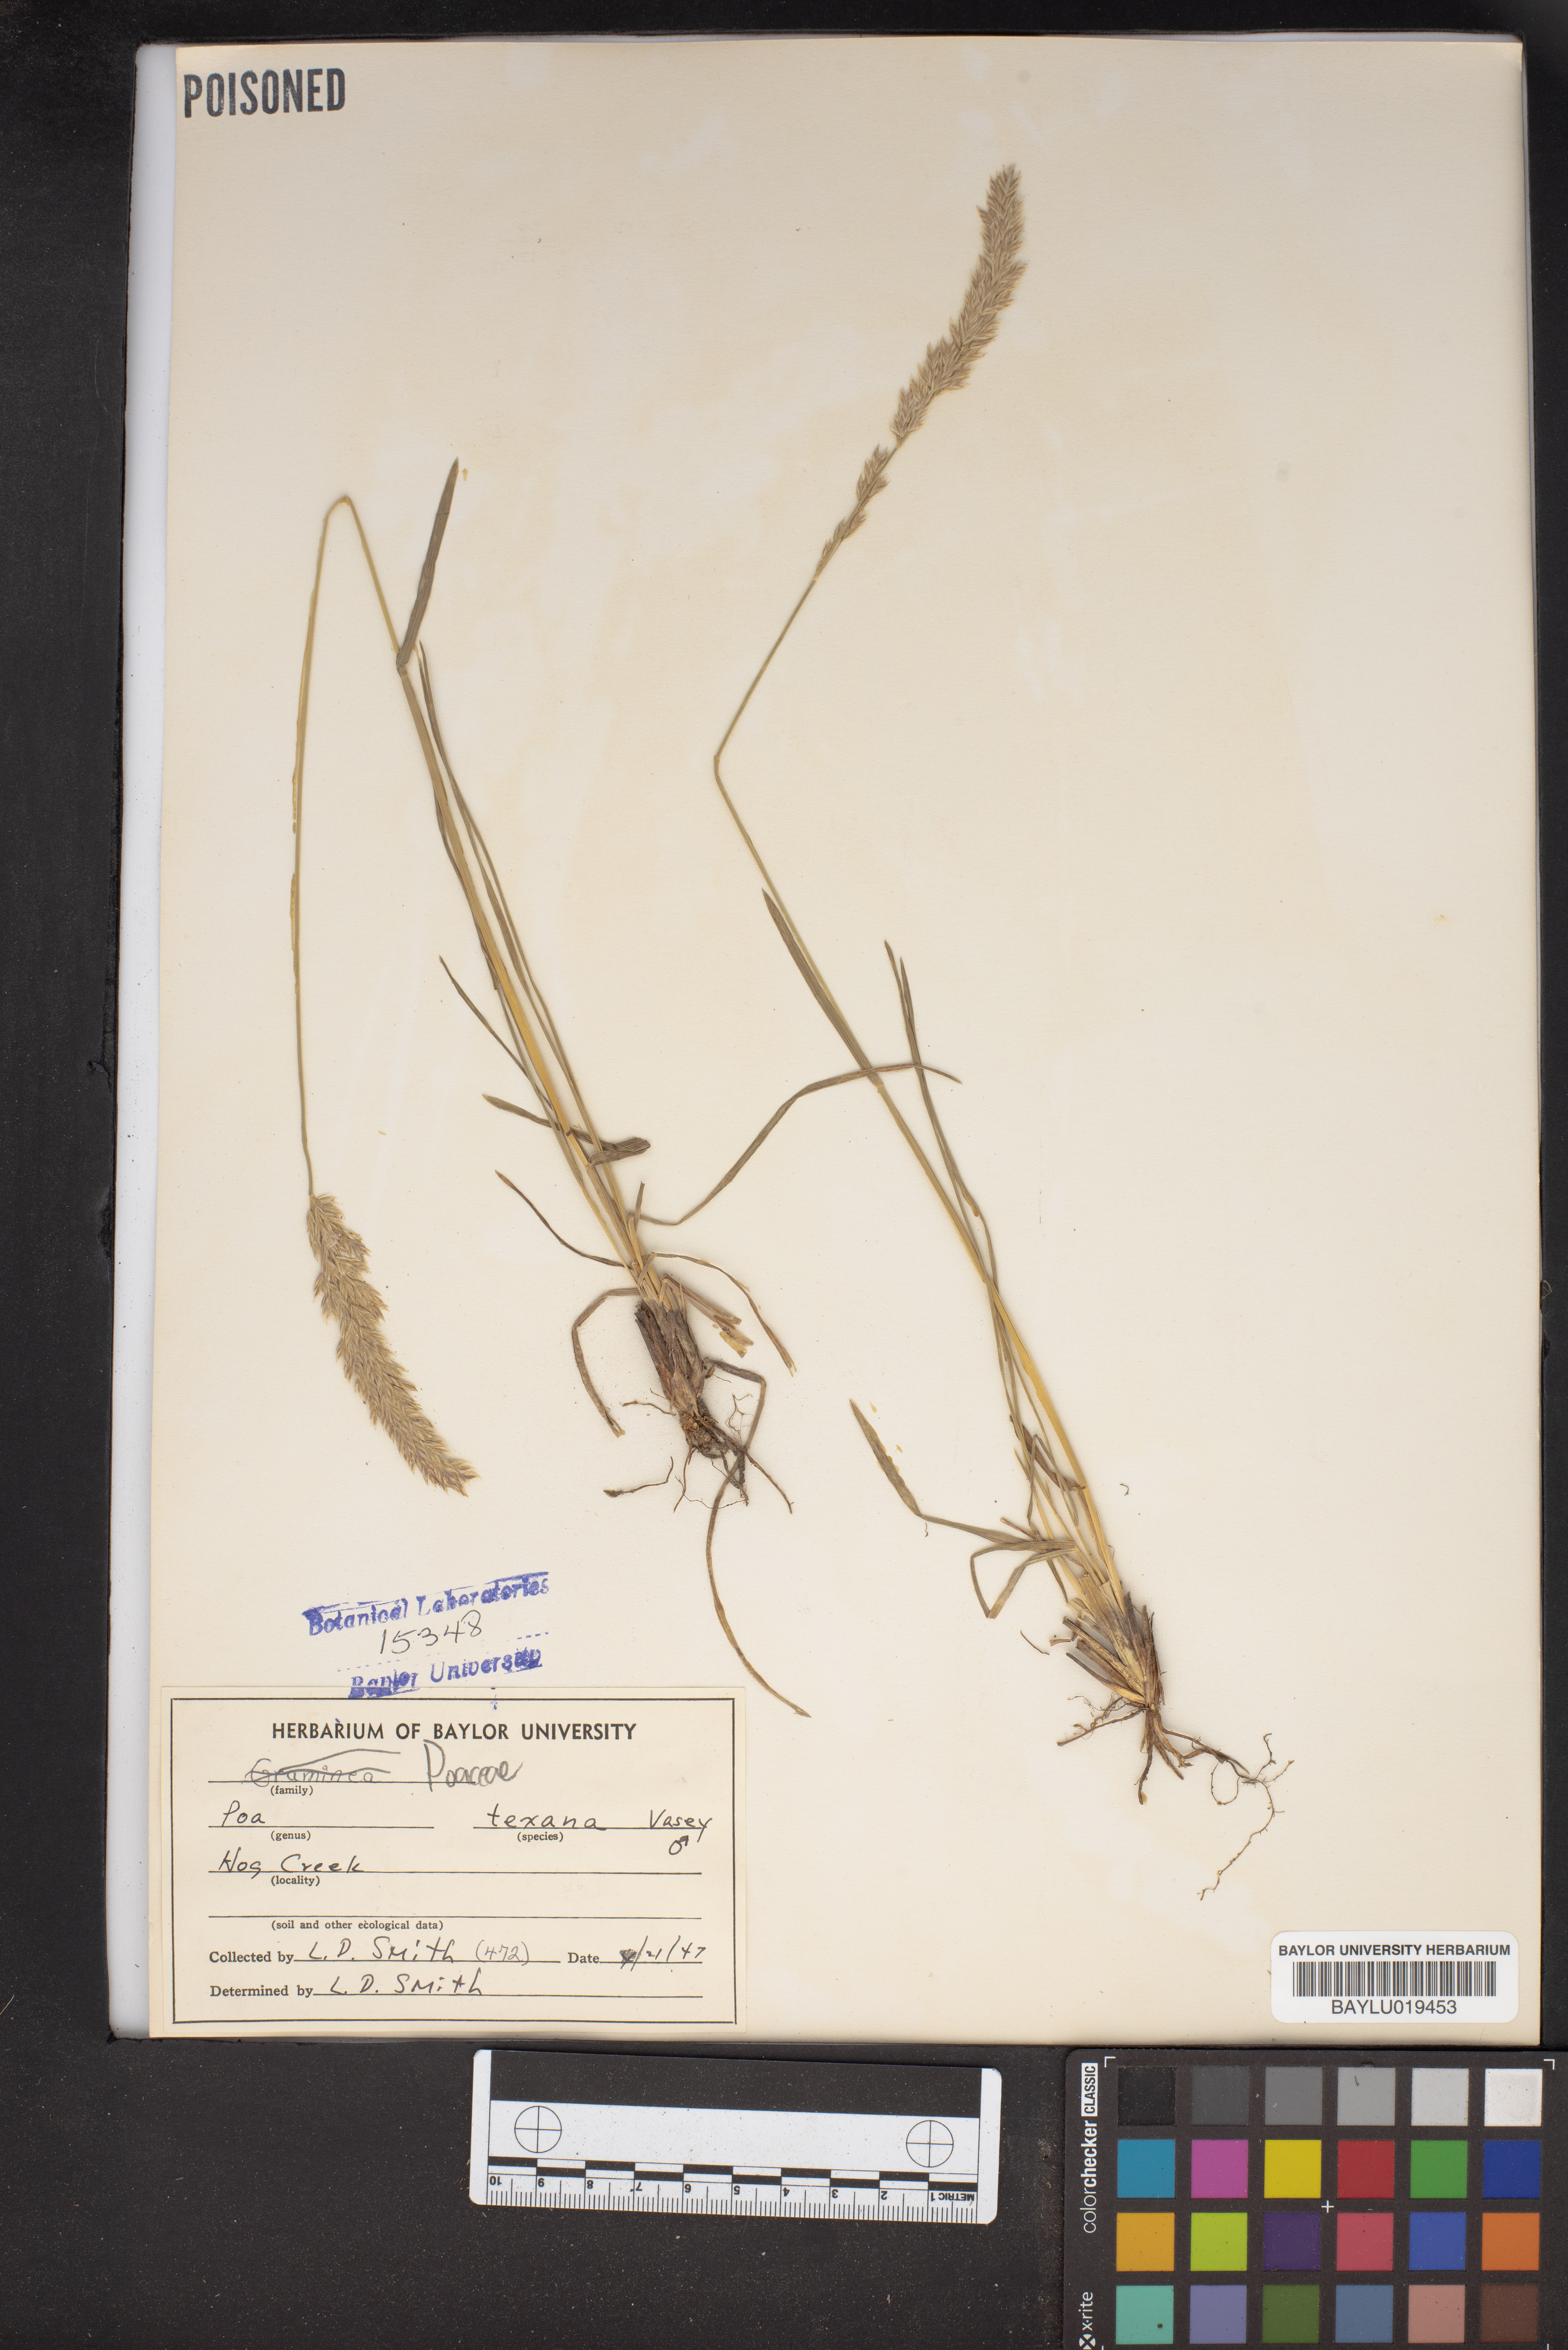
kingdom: Plantae
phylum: Tracheophyta
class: Liliopsida
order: Poales
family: Poaceae
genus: Allolepis
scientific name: Allolepis texana
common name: False salt grass
